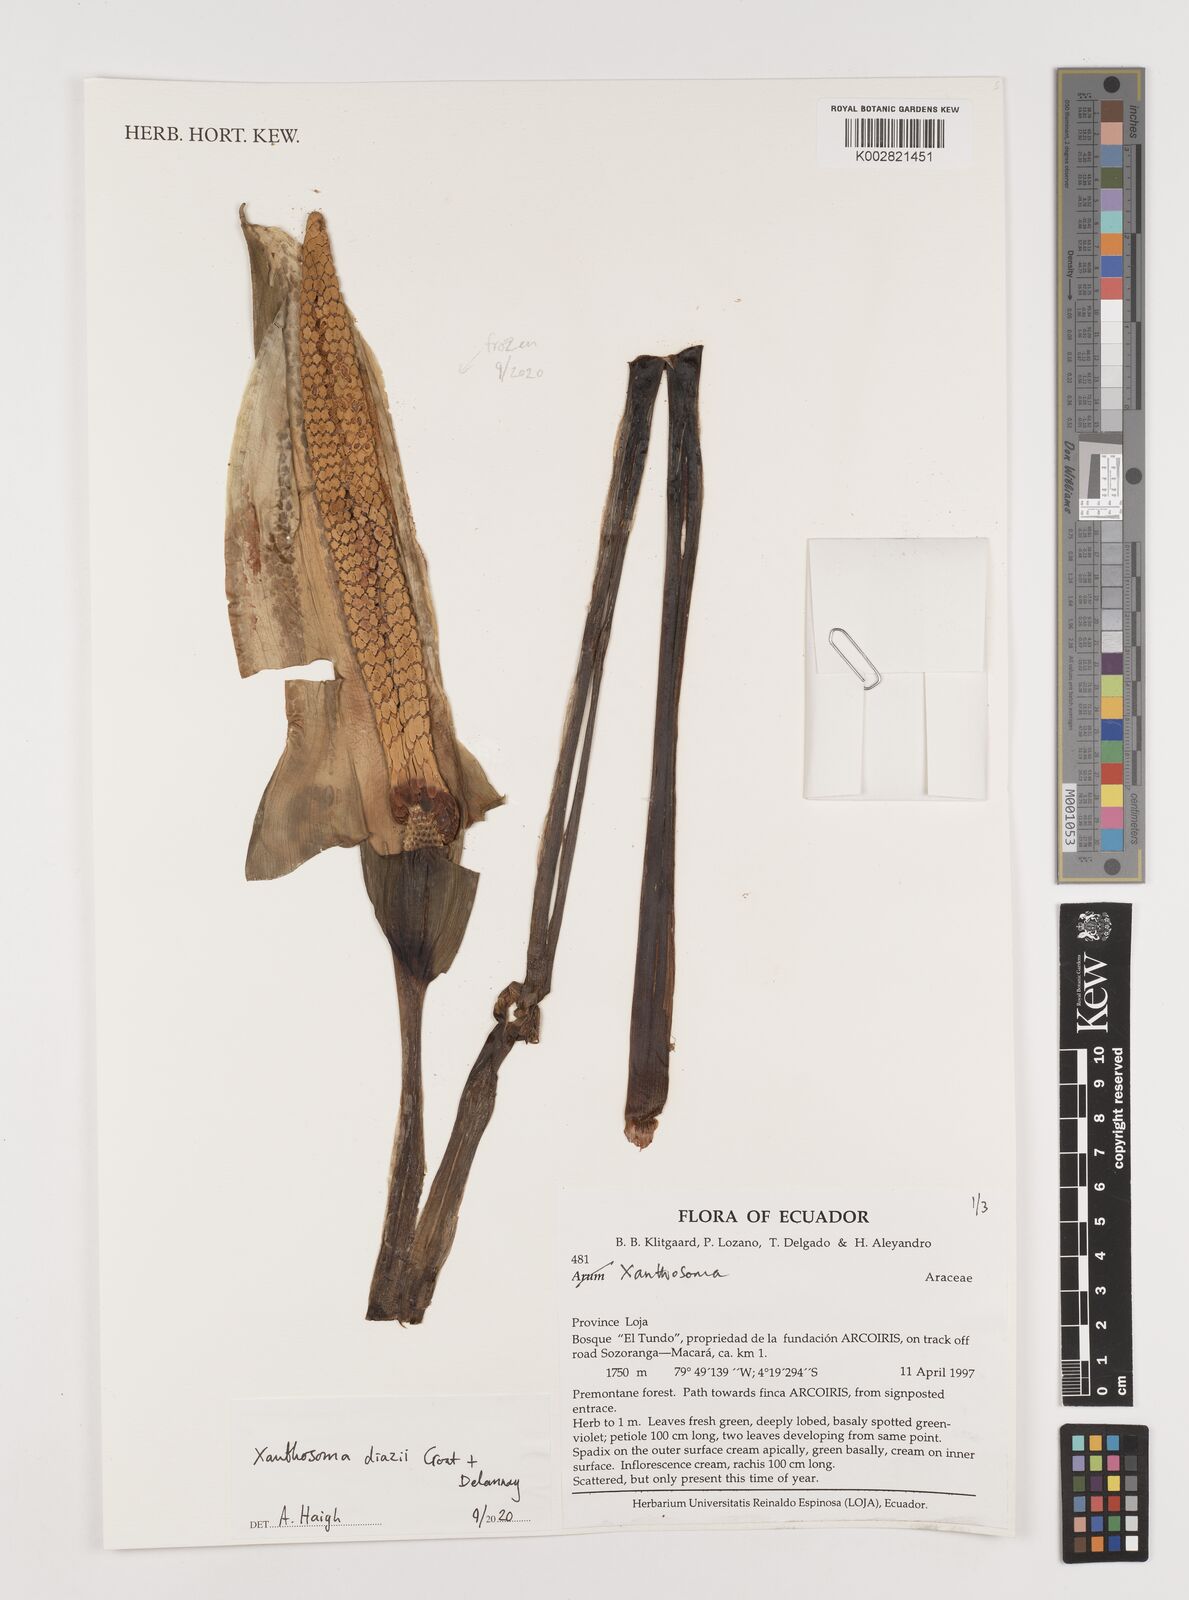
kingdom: Plantae
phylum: Tracheophyta
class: Liliopsida
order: Alismatales
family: Araceae
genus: Xanthosoma
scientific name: Xanthosoma diazii
